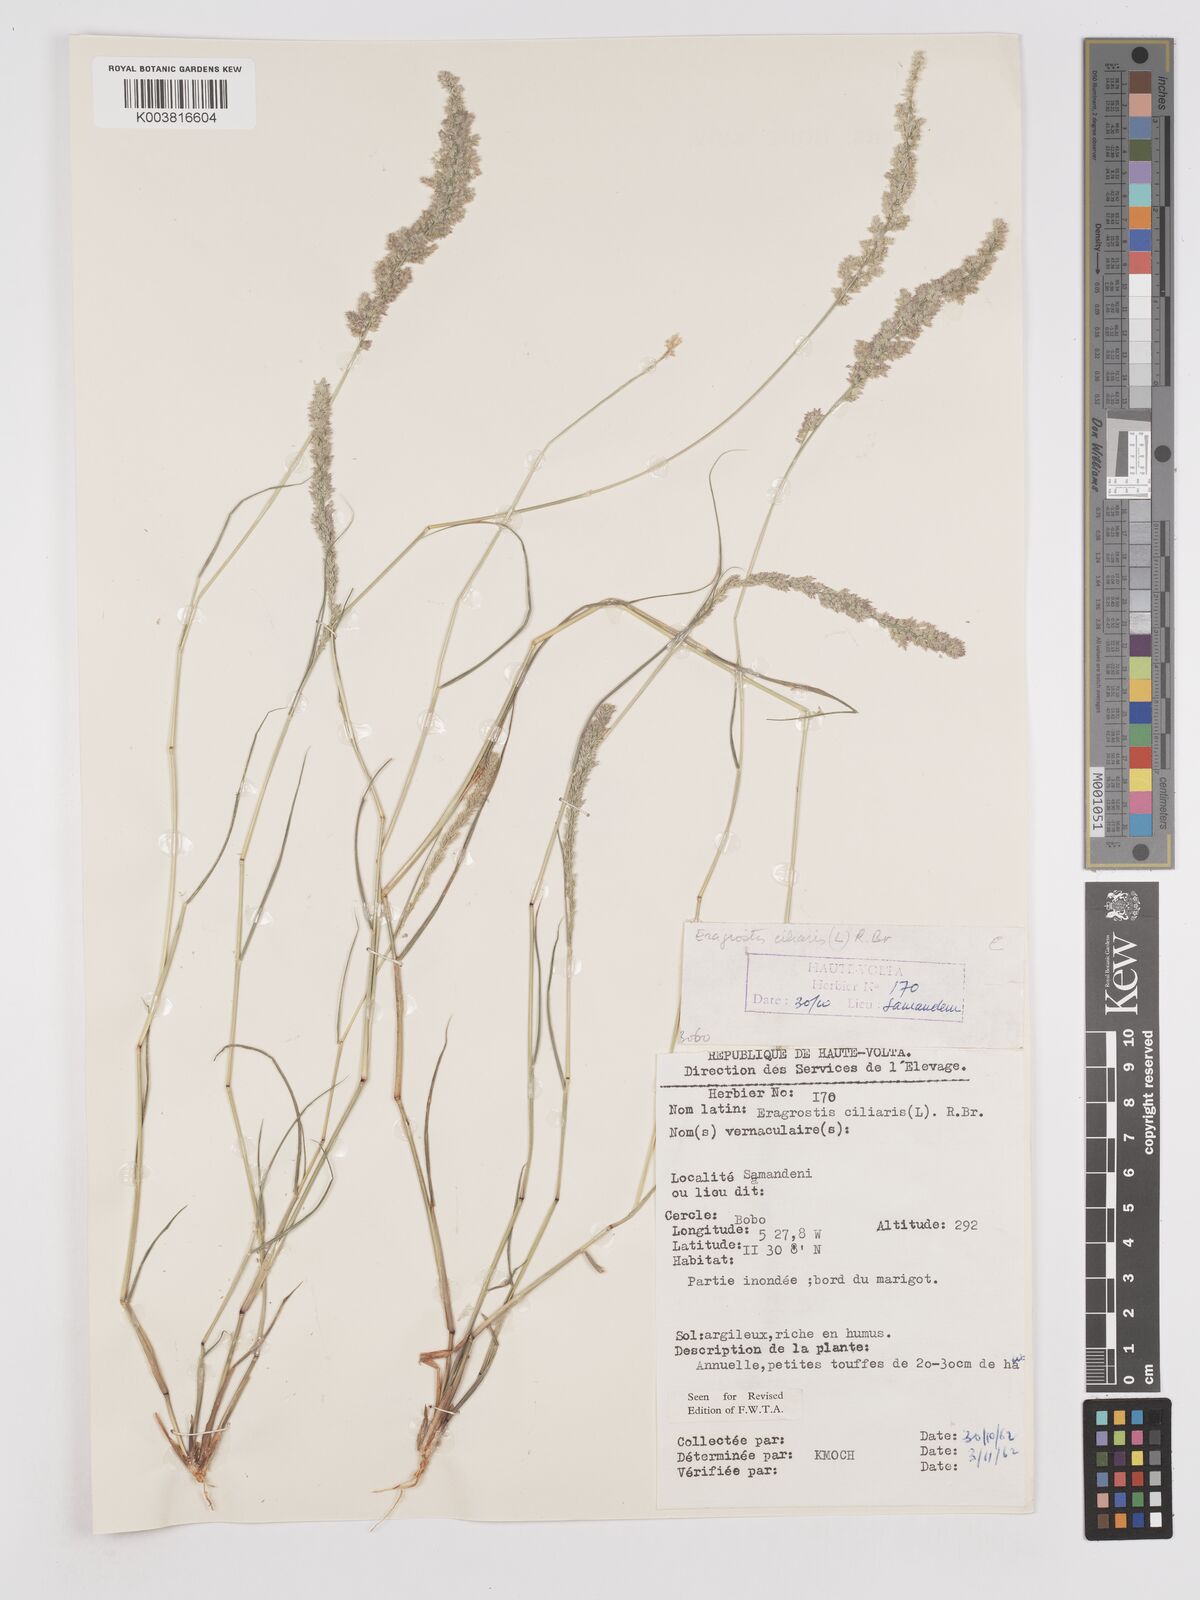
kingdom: Plantae
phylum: Tracheophyta
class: Liliopsida
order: Poales
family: Poaceae
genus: Eragrostis
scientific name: Eragrostis ciliaris
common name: Gophertail lovegrass
